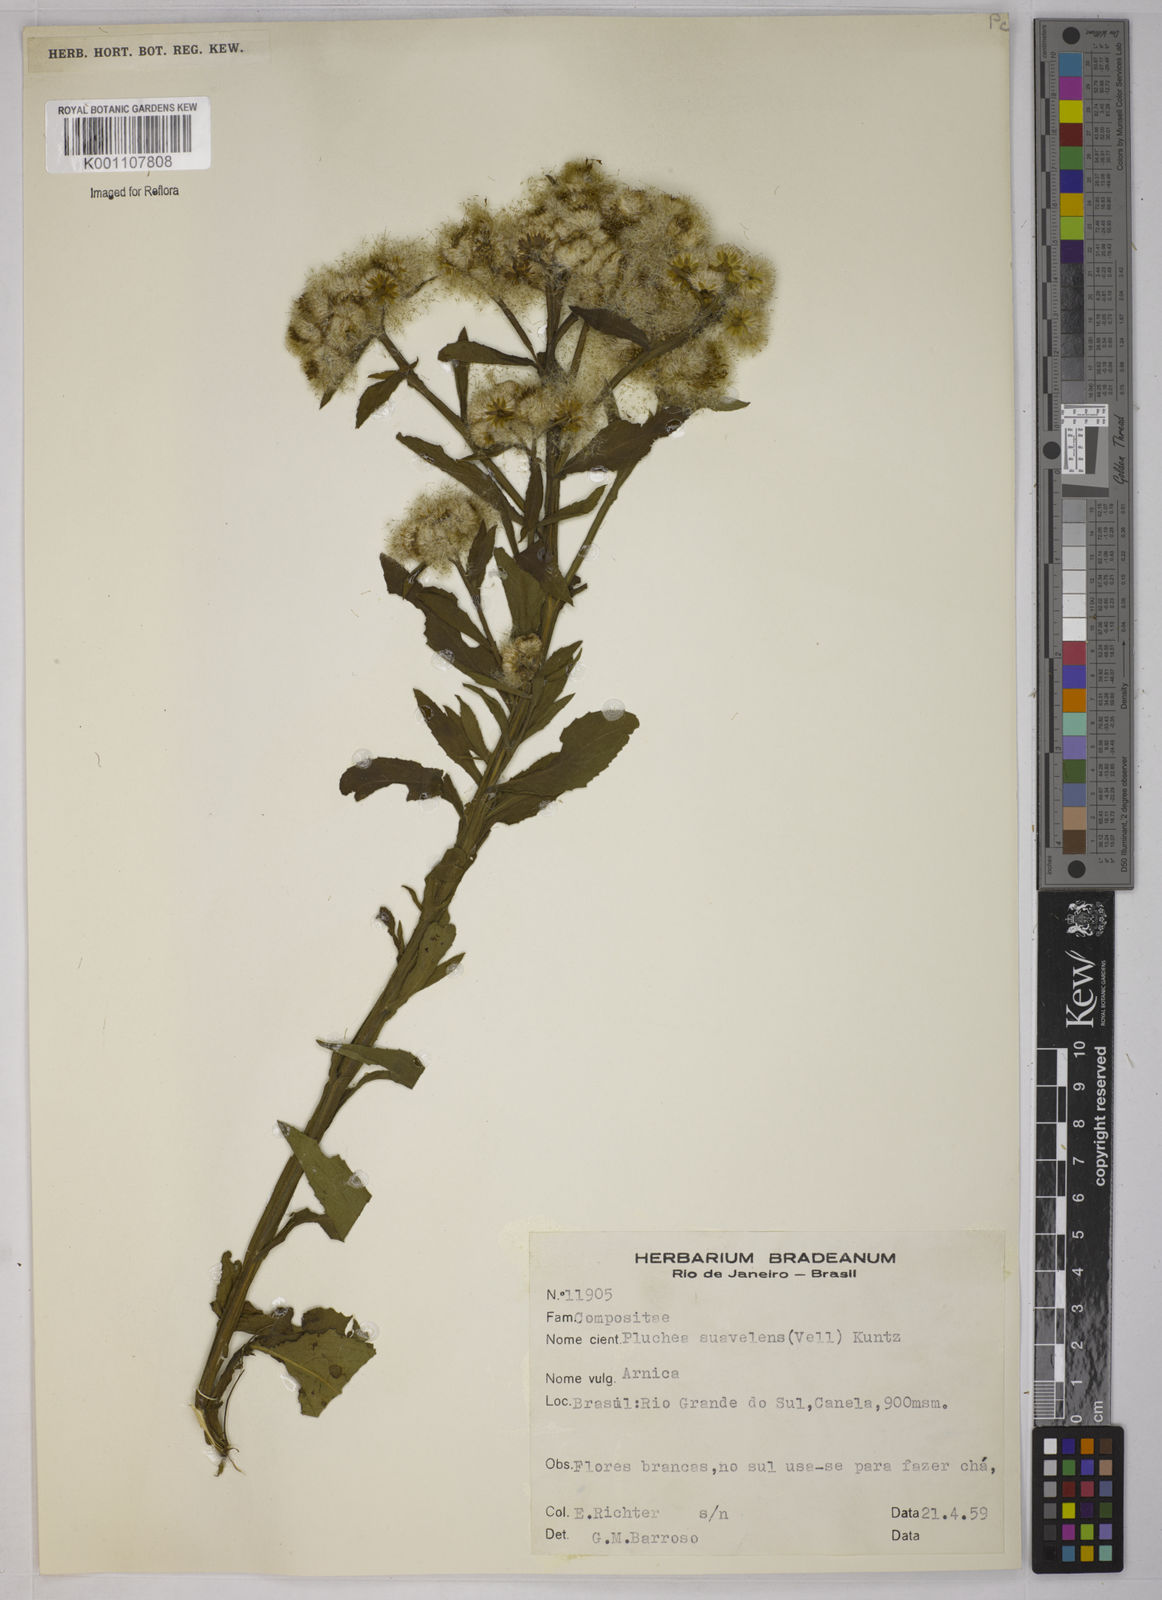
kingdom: Plantae
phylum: Tracheophyta
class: Magnoliopsida
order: Asterales
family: Asteraceae
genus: Pluchea
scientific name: Pluchea sagittalis
